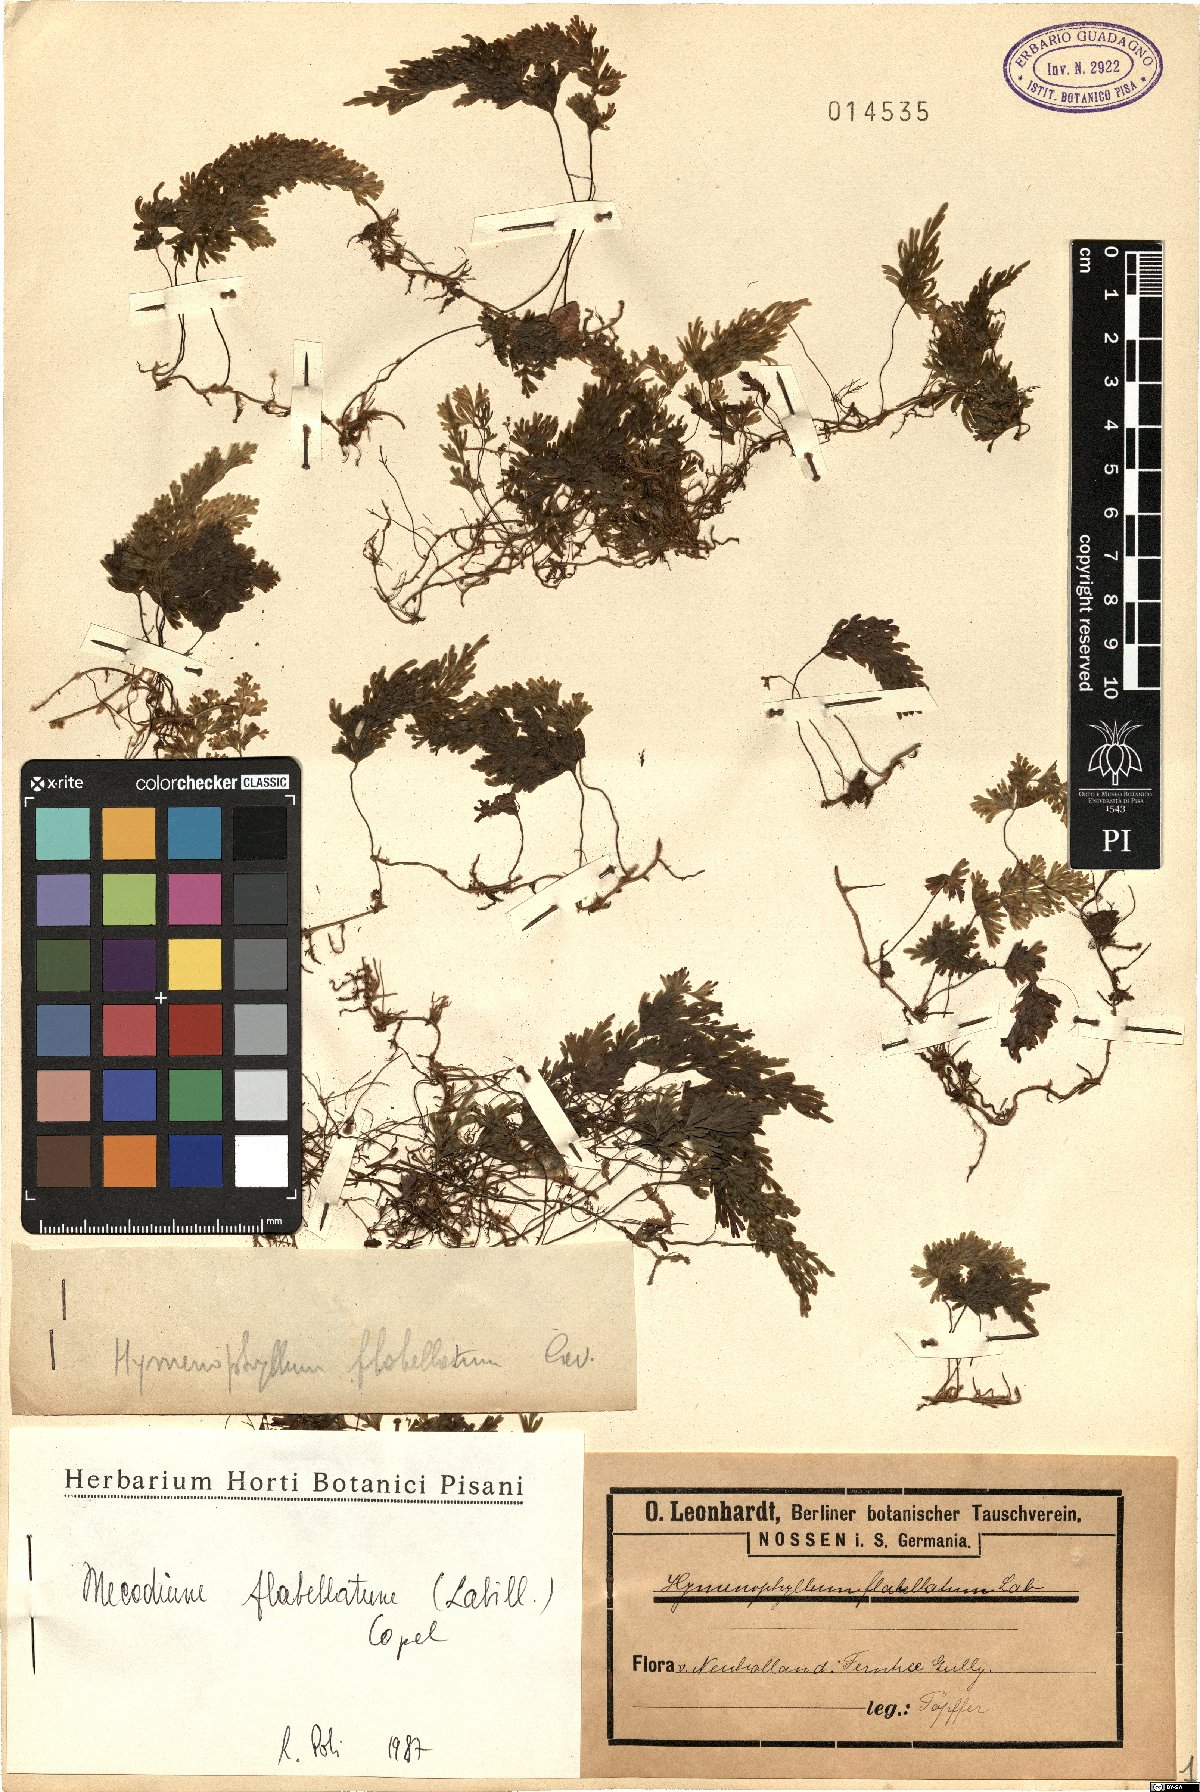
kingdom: Plantae
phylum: Tracheophyta
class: Polypodiopsida
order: Hymenophyllales
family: Hymenophyllaceae
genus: Hymenophyllum
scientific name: Hymenophyllum flabellatum
